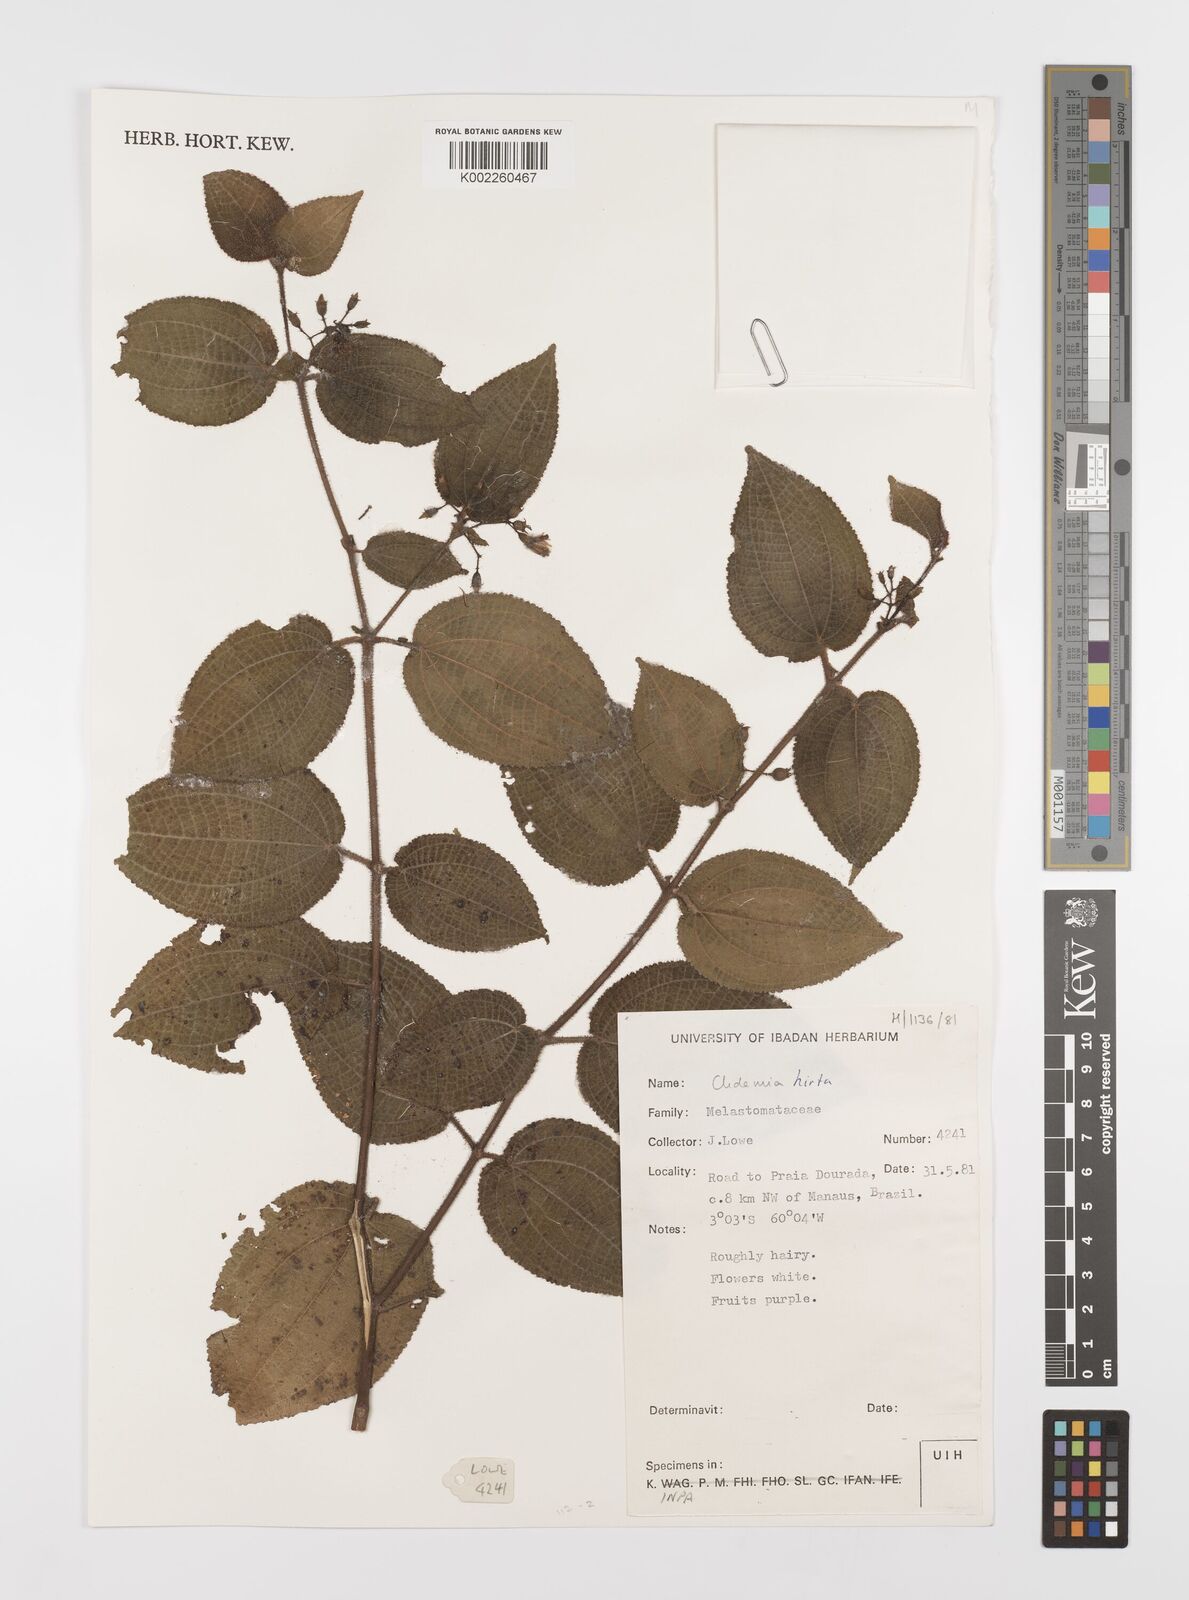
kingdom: Plantae
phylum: Tracheophyta
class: Magnoliopsida
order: Myrtales
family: Melastomataceae
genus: Miconia
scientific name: Miconia crenata
